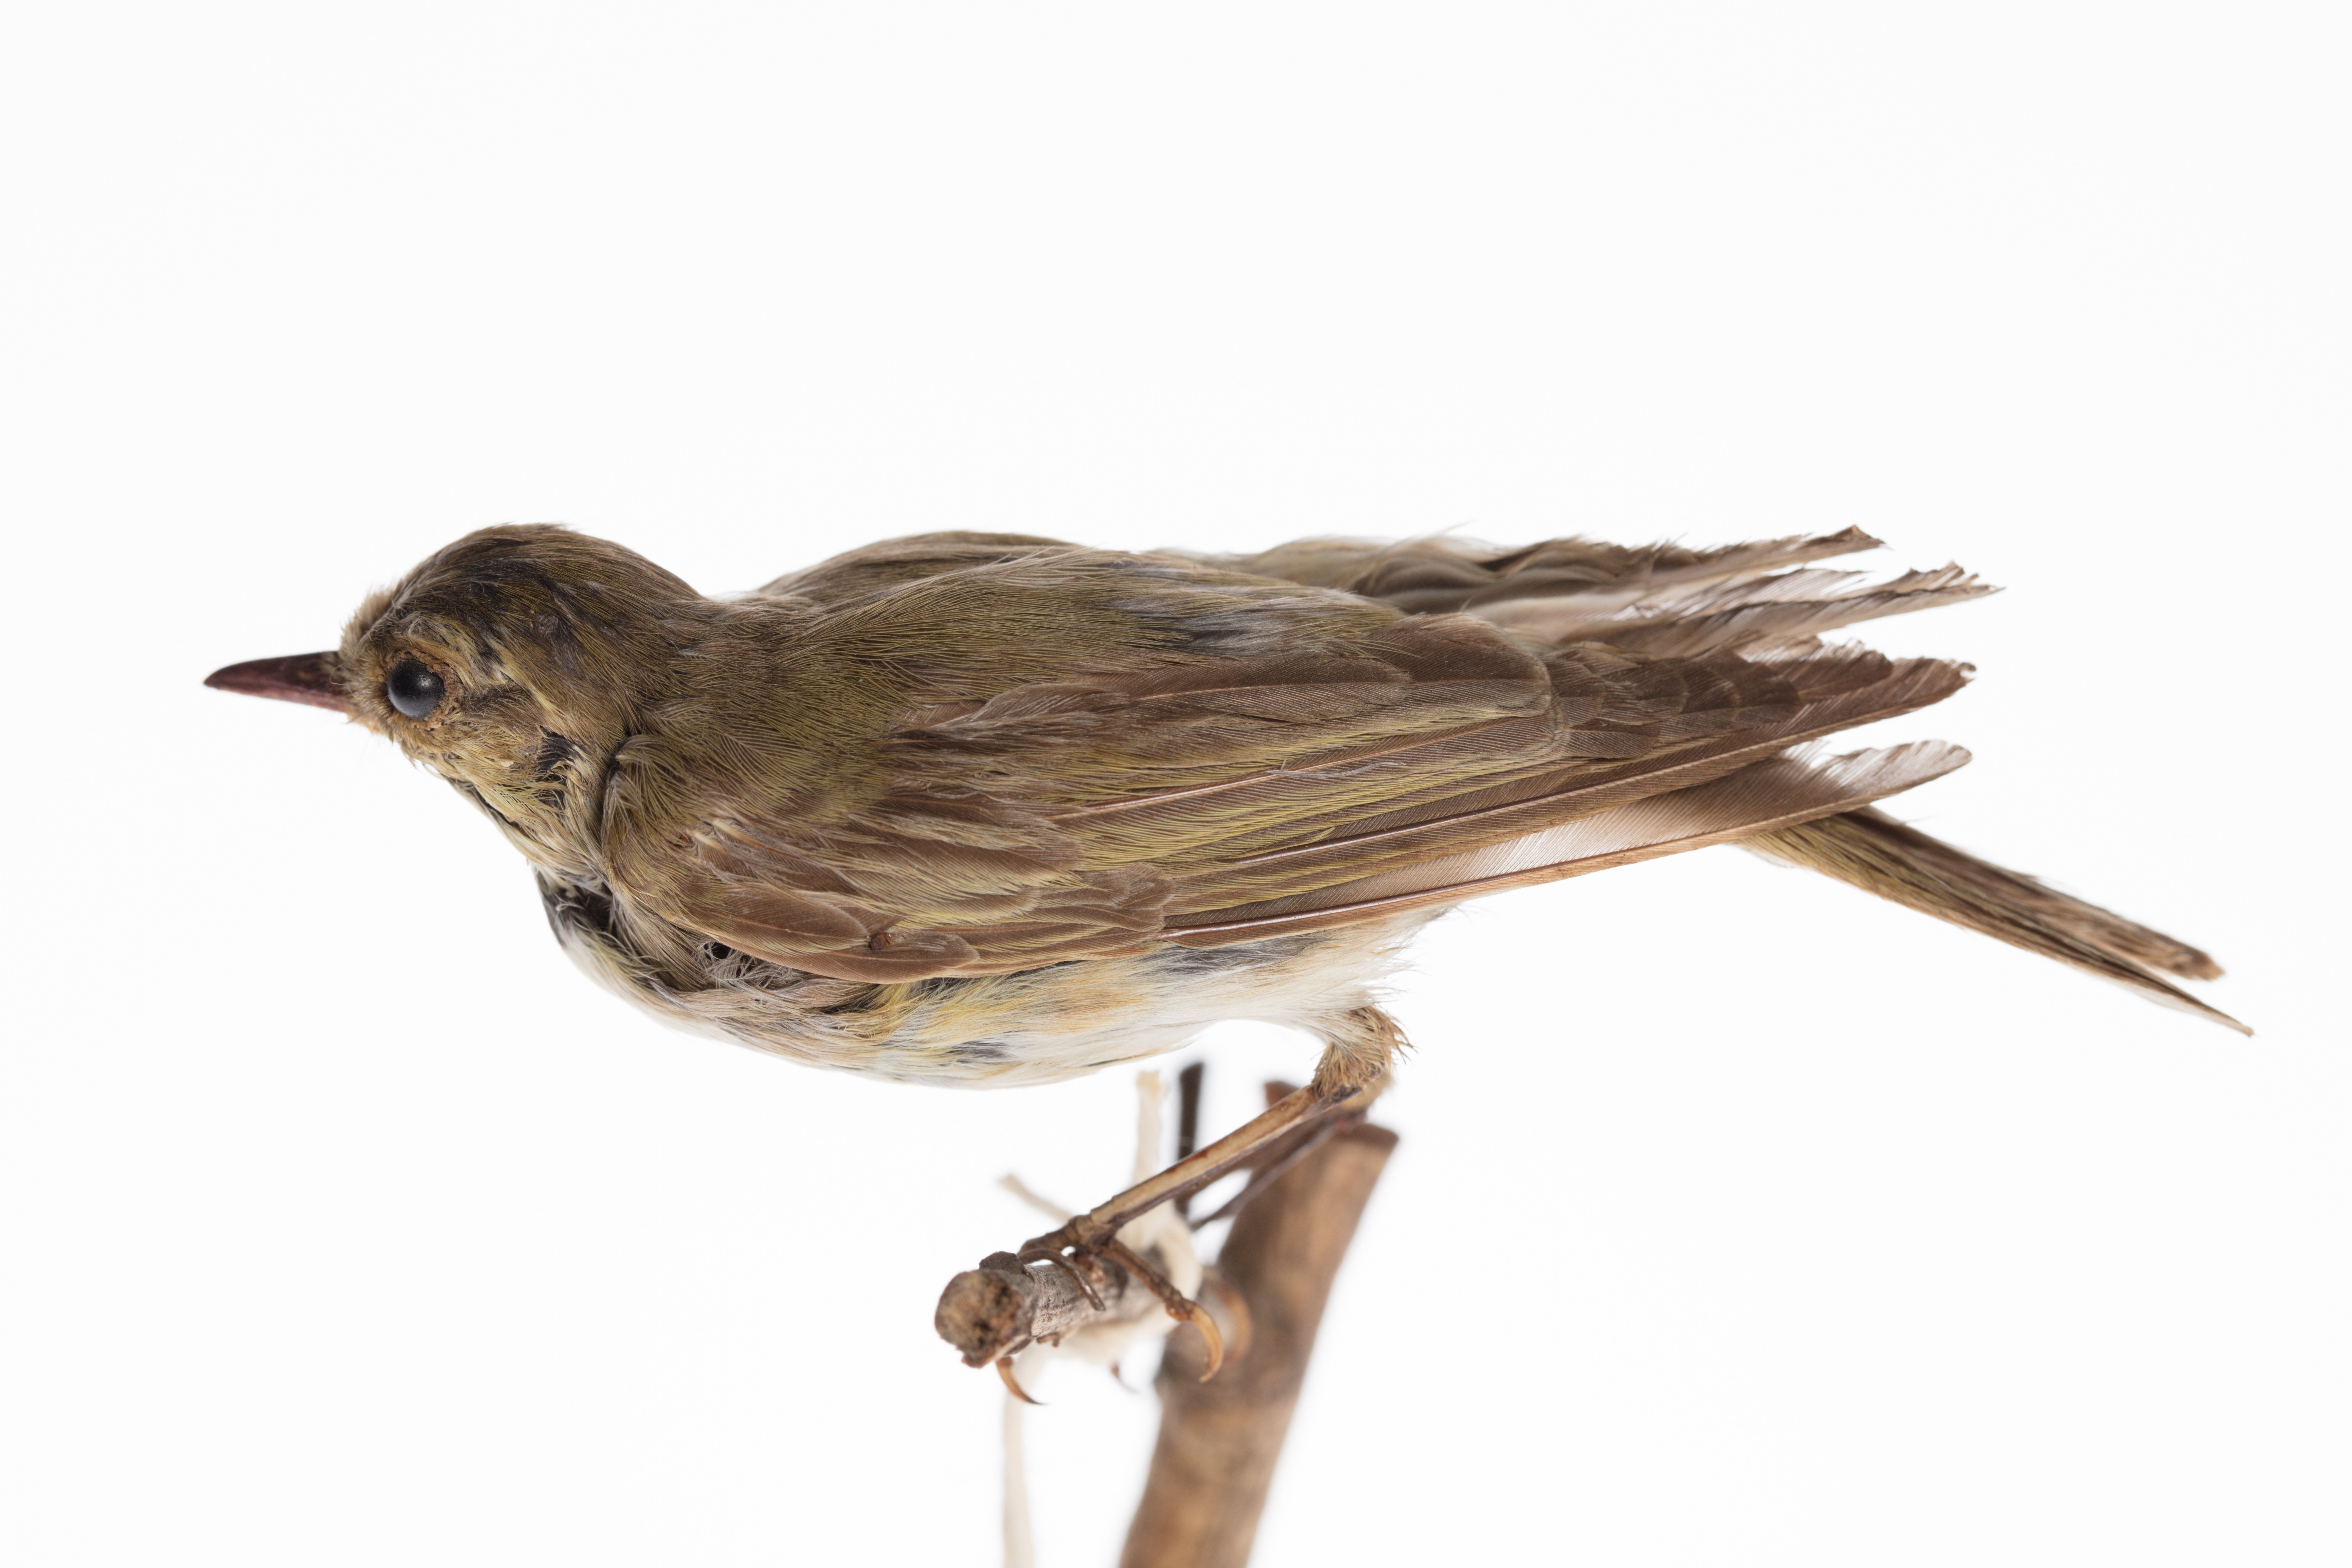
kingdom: Animalia
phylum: Chordata
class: Aves
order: Passeriformes
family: Phylloscopidae
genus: Phylloscopus
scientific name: Phylloscopus sibillatrix
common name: Wood warbler
